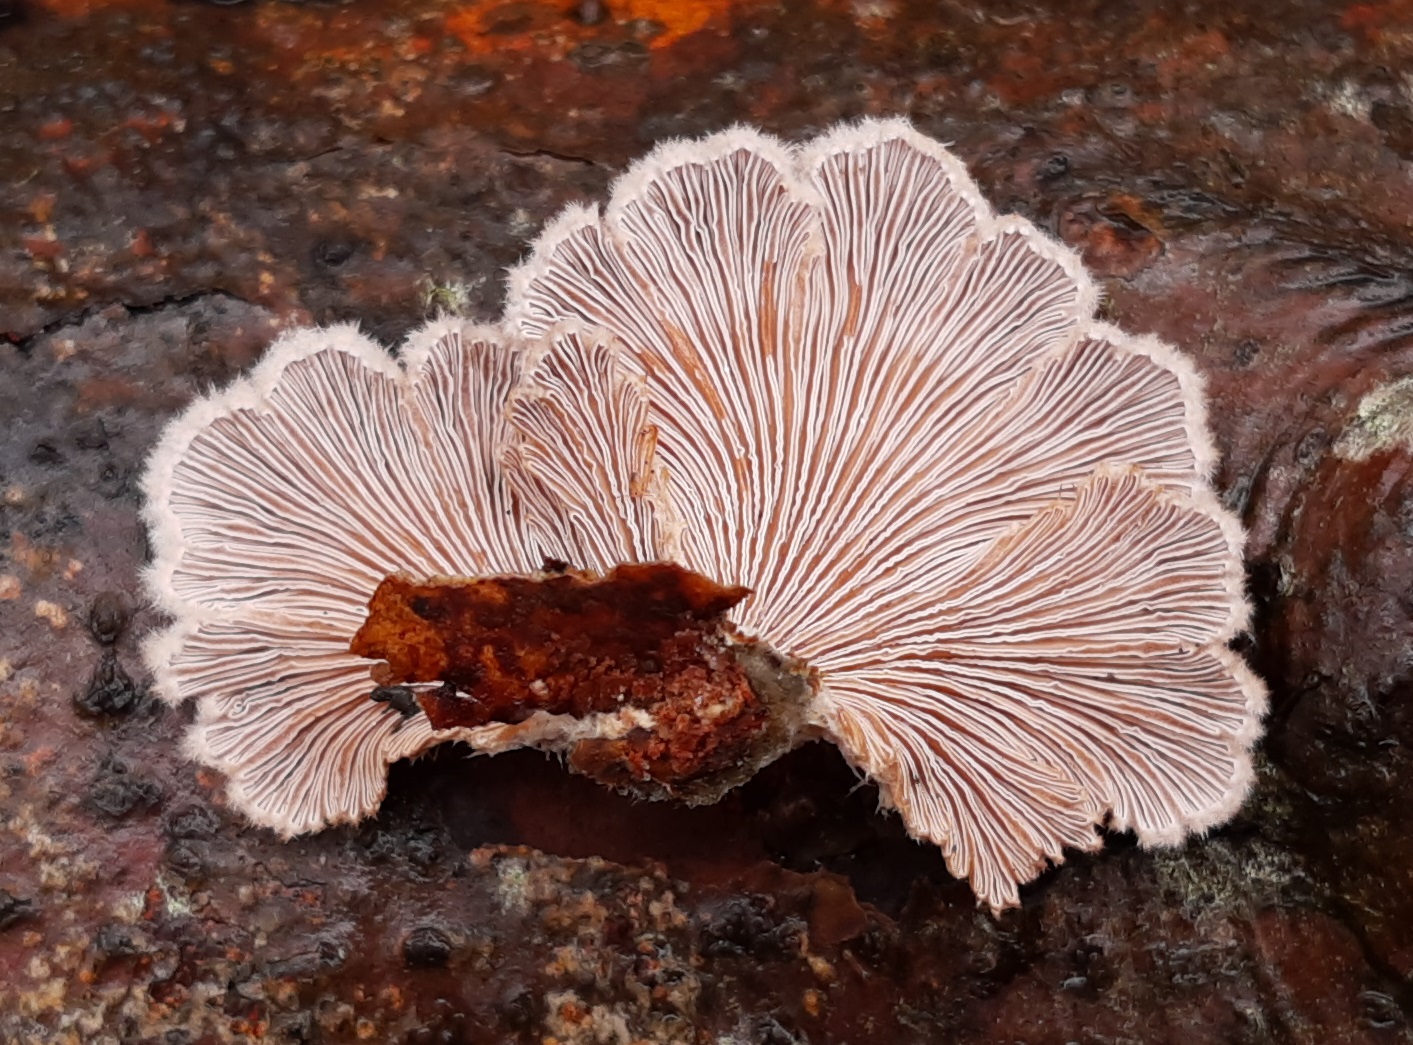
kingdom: Fungi
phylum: Basidiomycota
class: Agaricomycetes
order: Agaricales
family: Schizophyllaceae
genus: Schizophyllum
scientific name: Schizophyllum commune
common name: kløvblad
